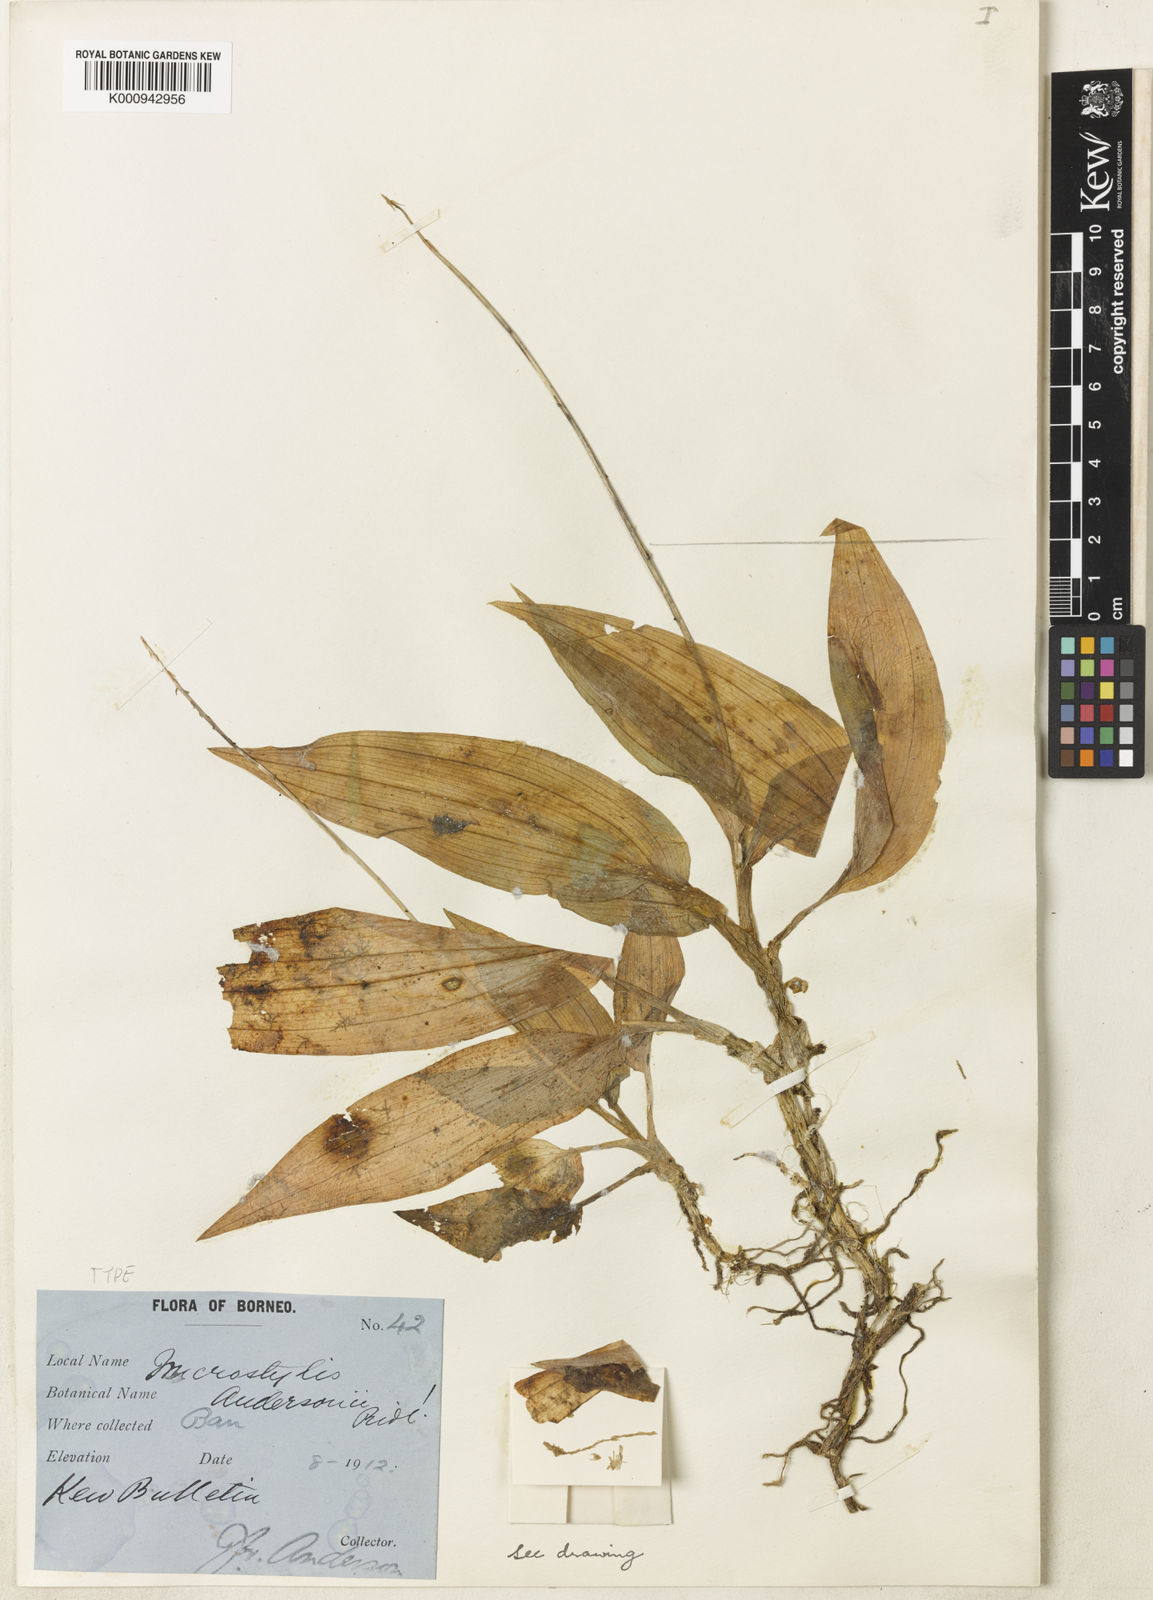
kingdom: Plantae
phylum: Tracheophyta
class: Liliopsida
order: Asparagales
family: Orchidaceae
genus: Crepidium
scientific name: Crepidium andersonii
